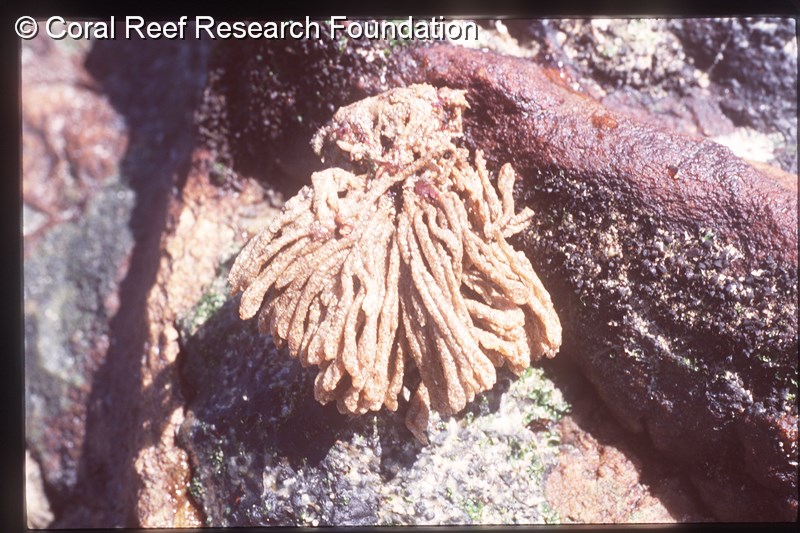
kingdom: Animalia
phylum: Chordata
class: Ascidiacea
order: Aplousobranchia
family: Euherdmaniidae
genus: Euherdmania
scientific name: Euherdmania divida
